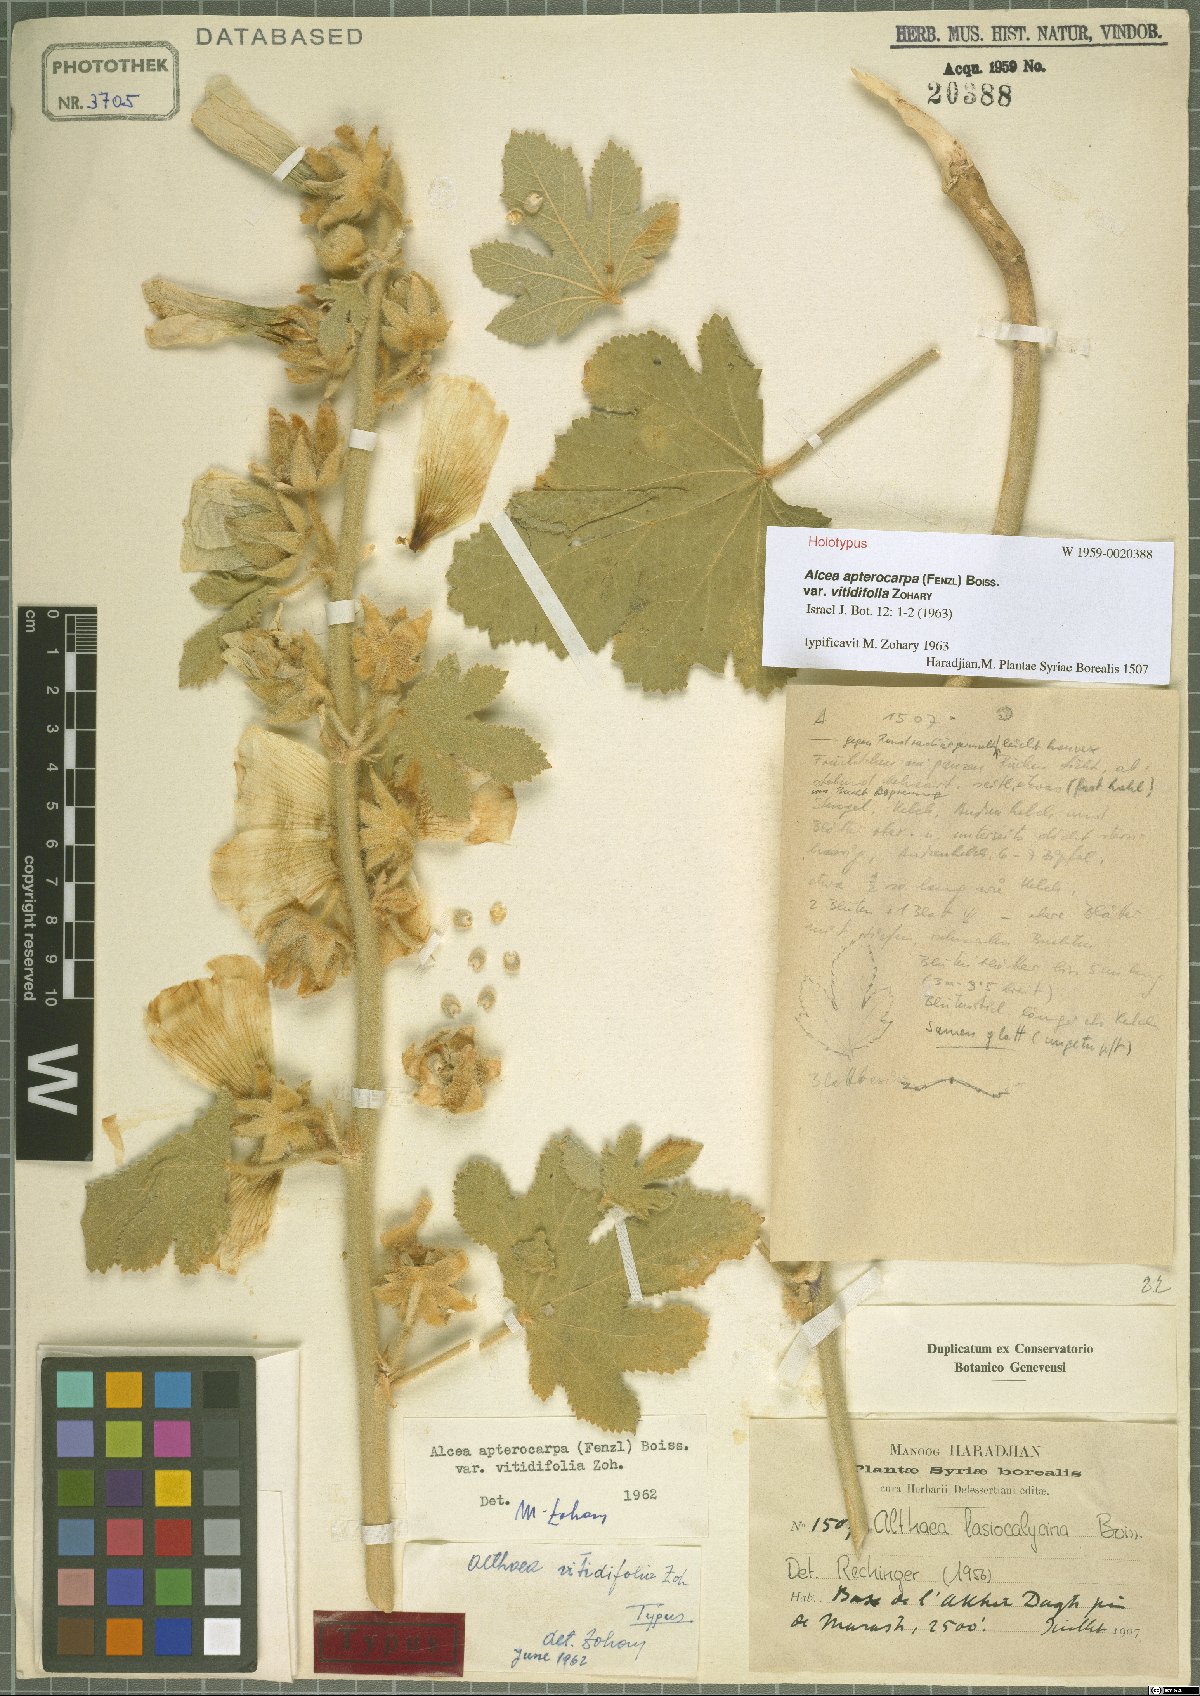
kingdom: Plantae
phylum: Tracheophyta
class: Magnoliopsida
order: Malvales
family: Malvaceae
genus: Alcea
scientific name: Alcea apterocarpa
